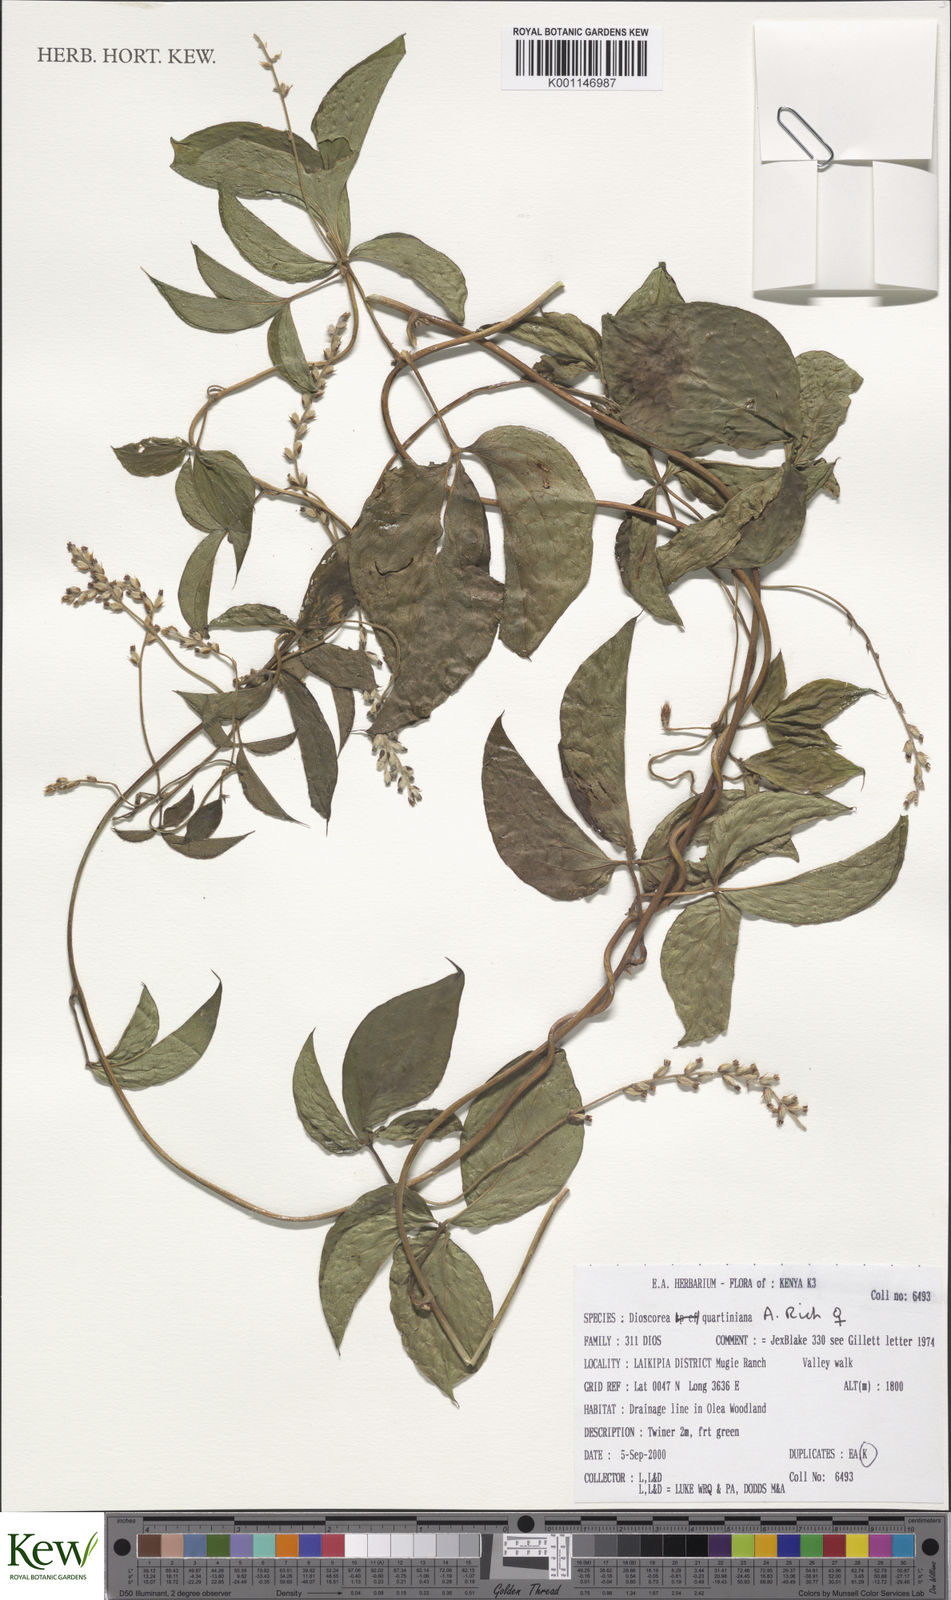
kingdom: Plantae
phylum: Tracheophyta
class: Liliopsida
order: Dioscoreales
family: Dioscoreaceae
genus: Dioscorea
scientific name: Dioscorea quartiniana
